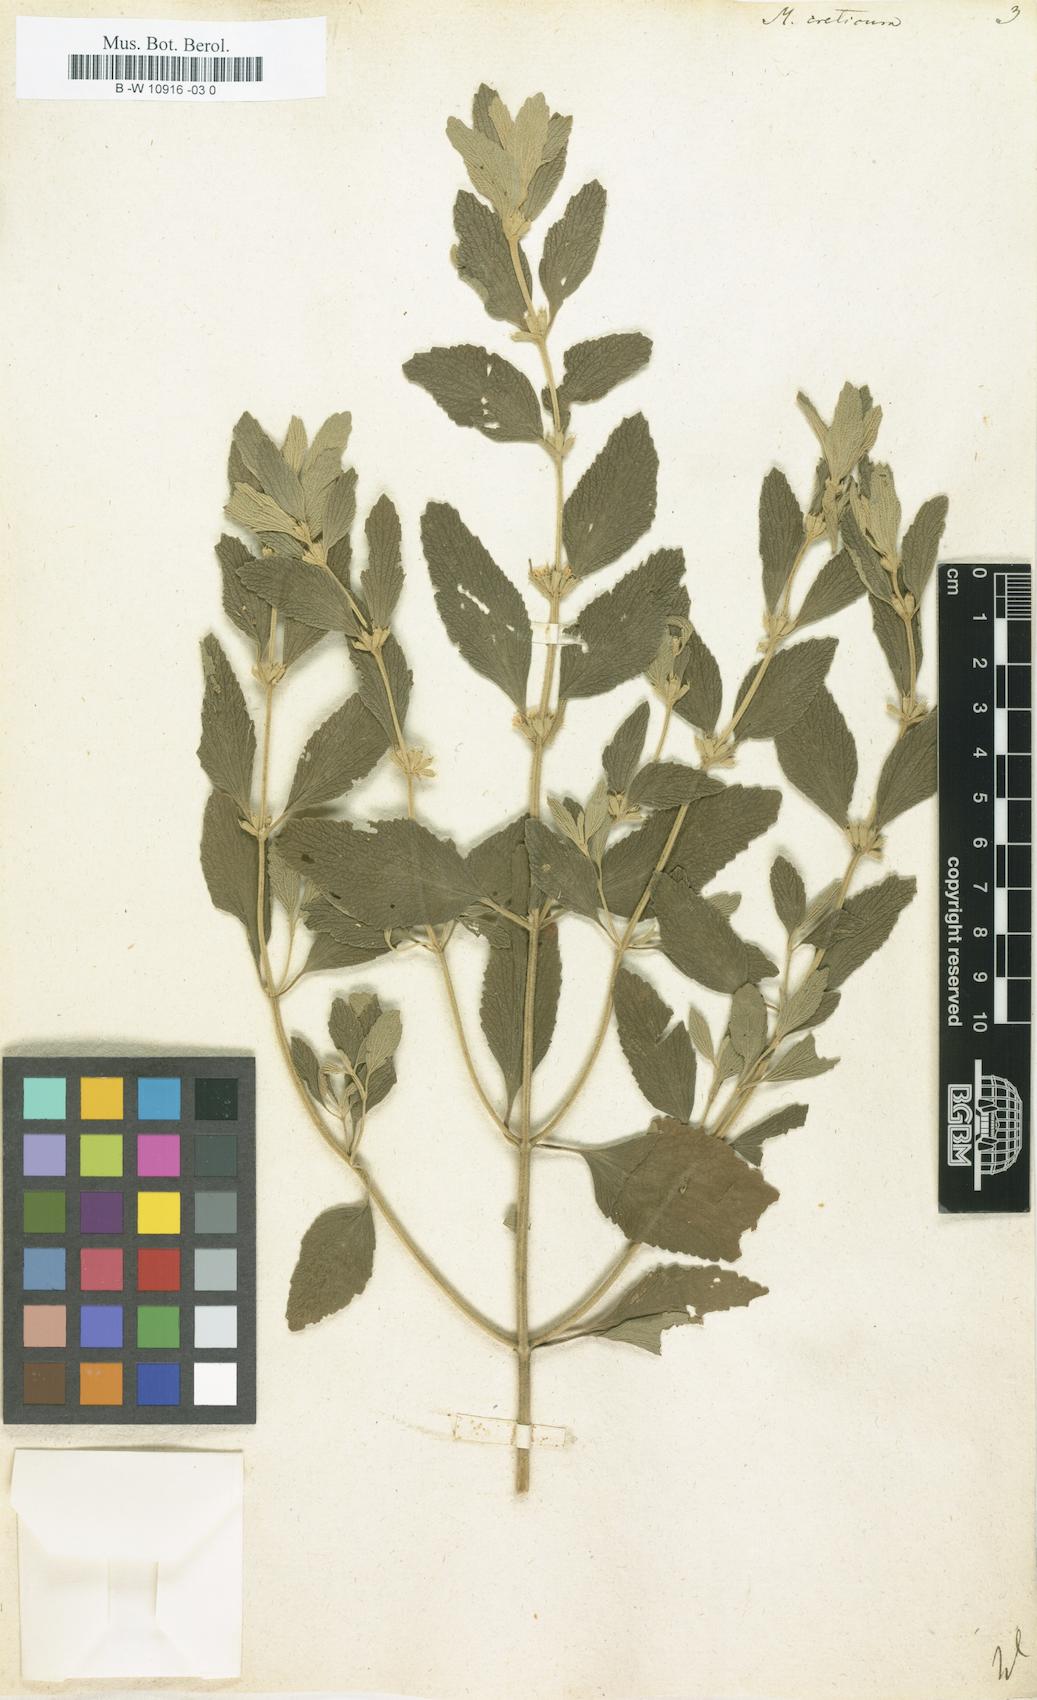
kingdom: Plantae
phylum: Tracheophyta
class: Magnoliopsida
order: Lamiales
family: Lamiaceae
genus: Marrubium
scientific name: Marrubium peregrinum
